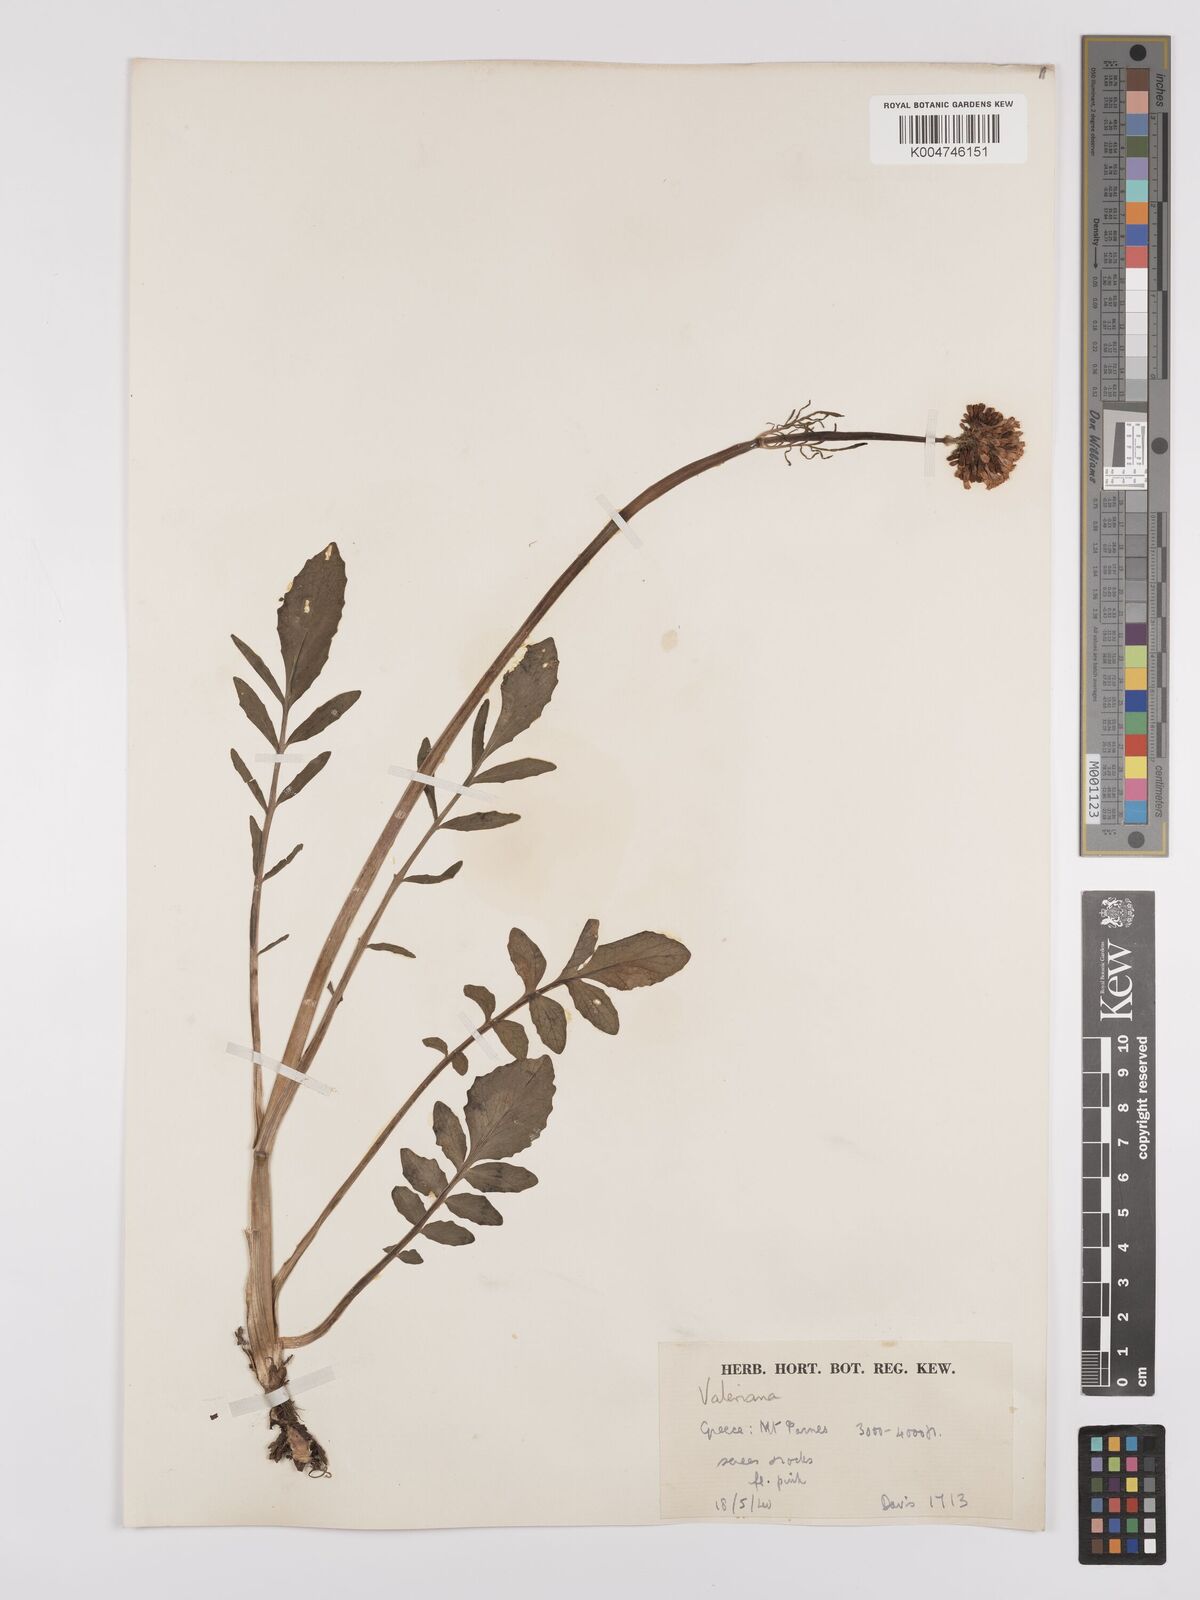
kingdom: Plantae
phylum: Tracheophyta
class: Magnoliopsida
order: Dipsacales
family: Caprifoliaceae
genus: Valeriana
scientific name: Valeriana dioscoridis
